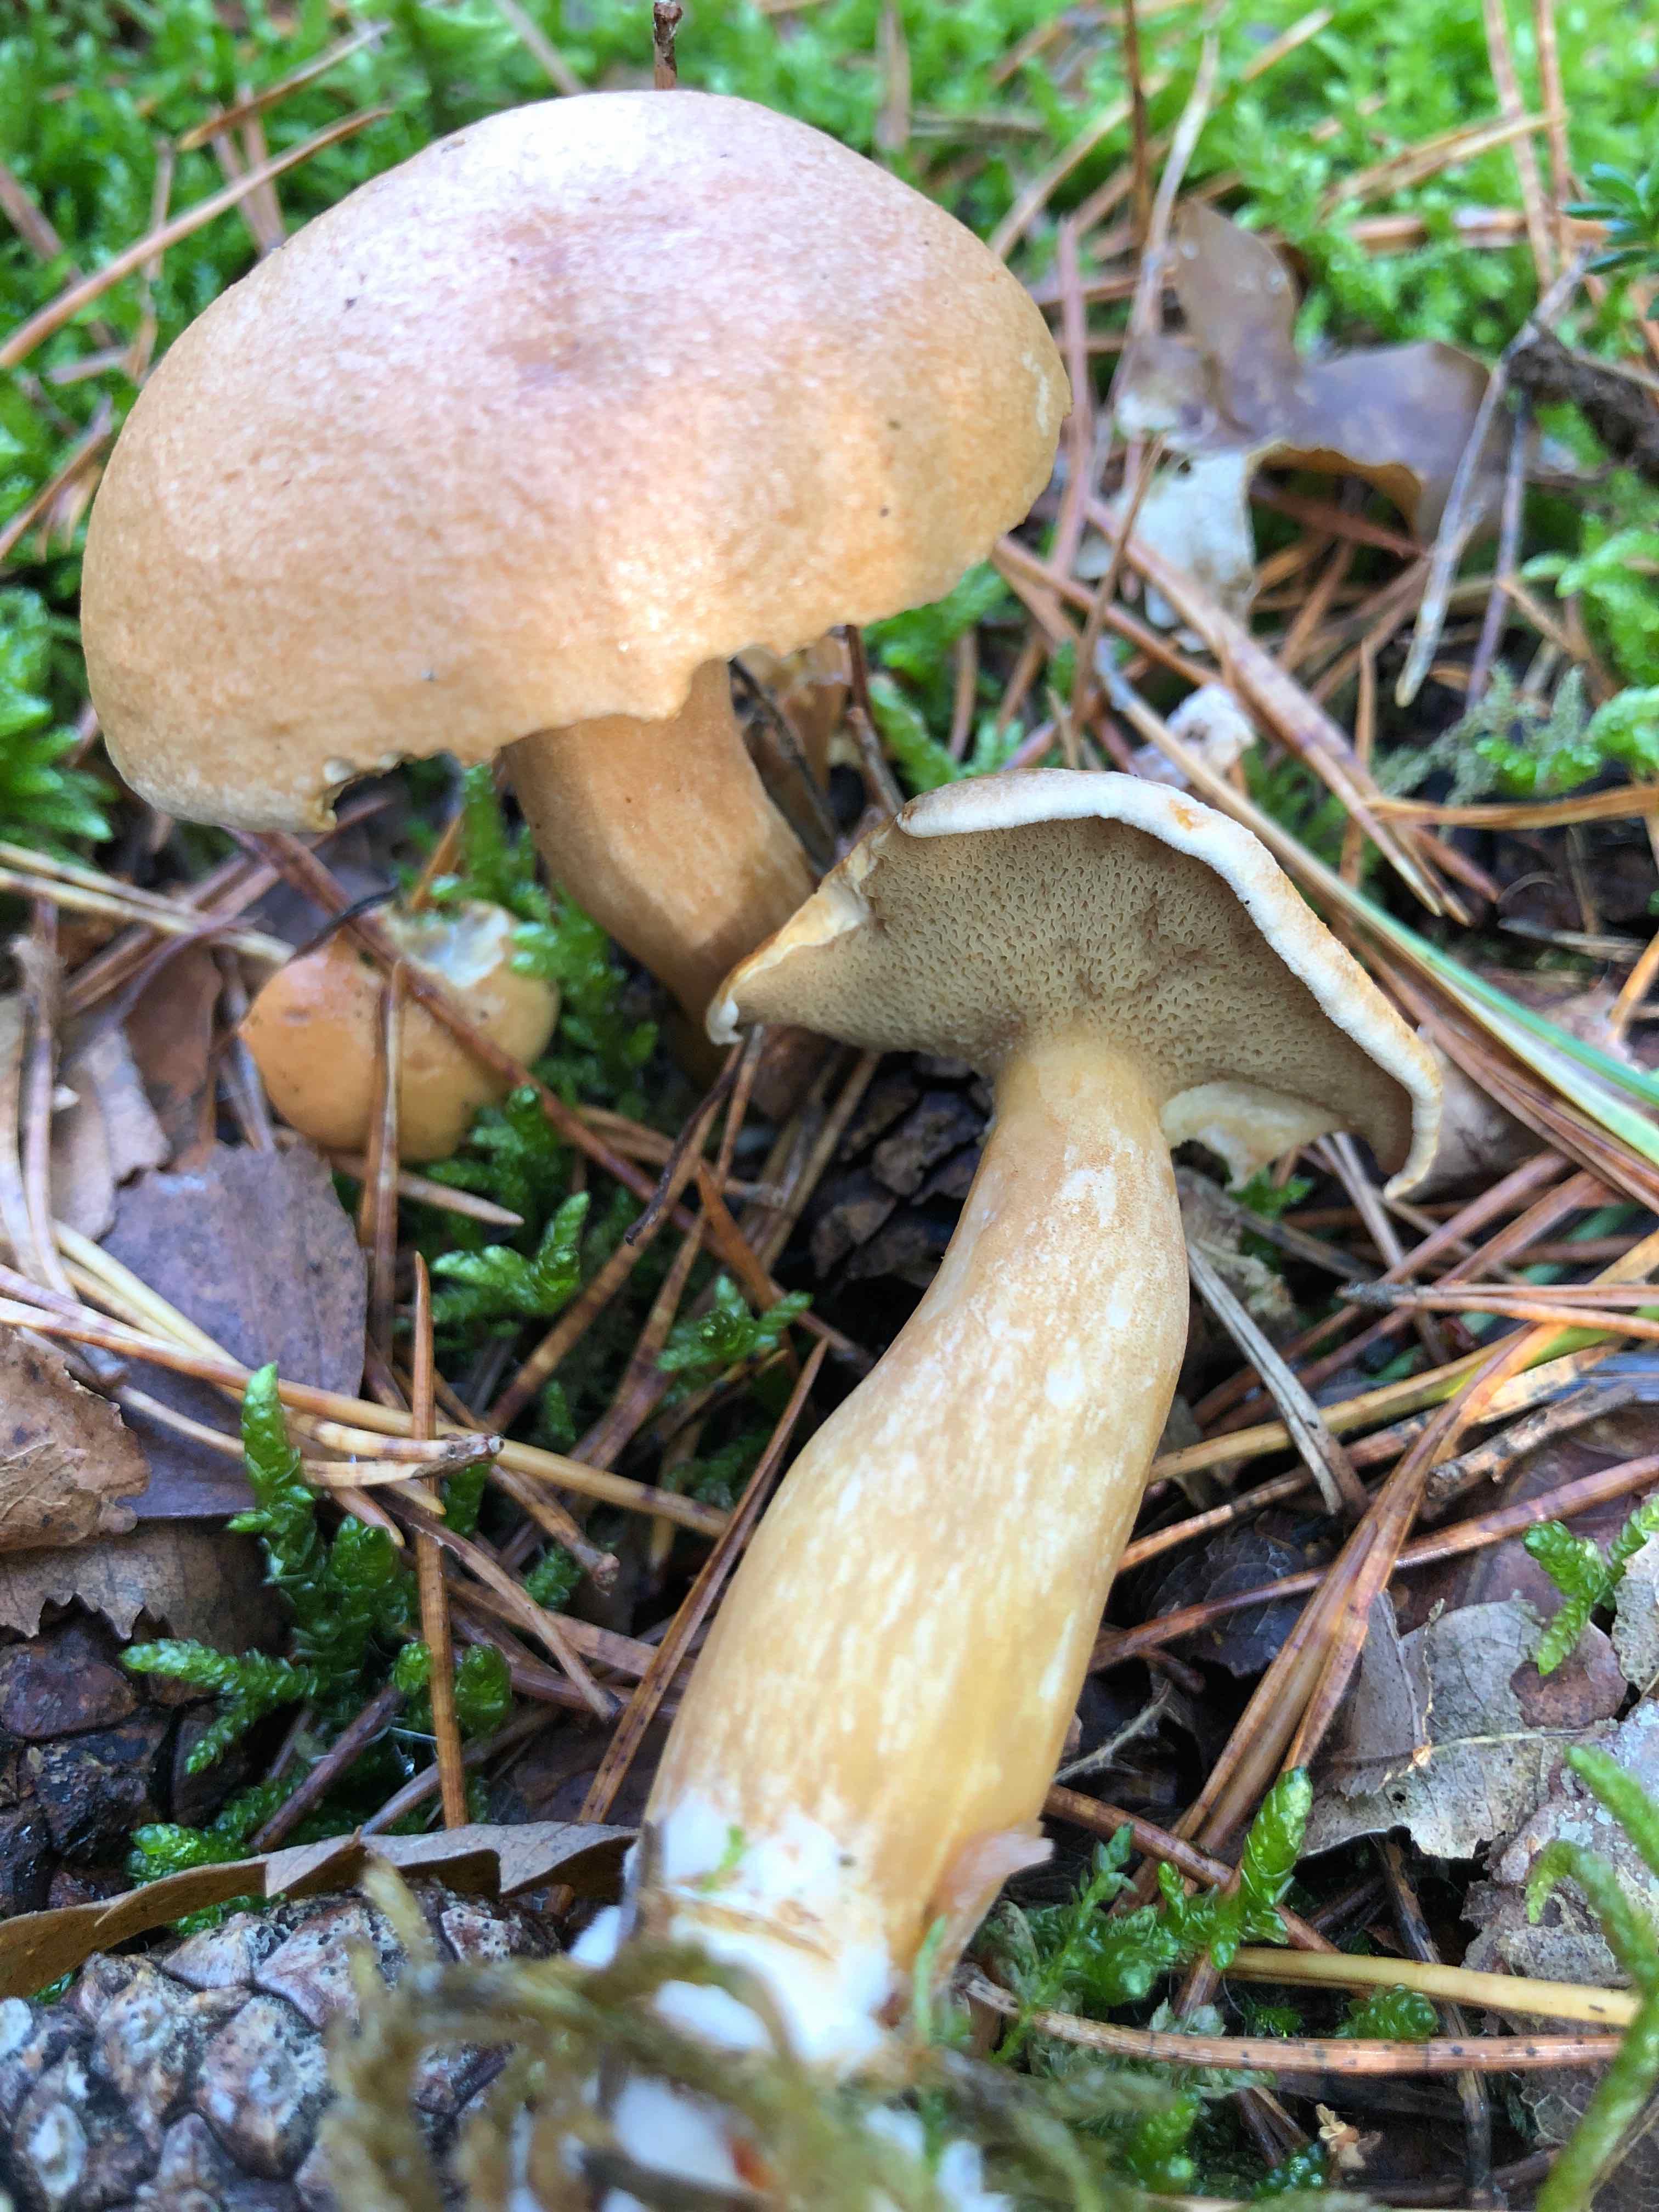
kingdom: Fungi
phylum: Basidiomycota
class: Agaricomycetes
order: Boletales
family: Suillaceae
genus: Suillus
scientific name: Suillus bovinus
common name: grovporet slimrørhat
